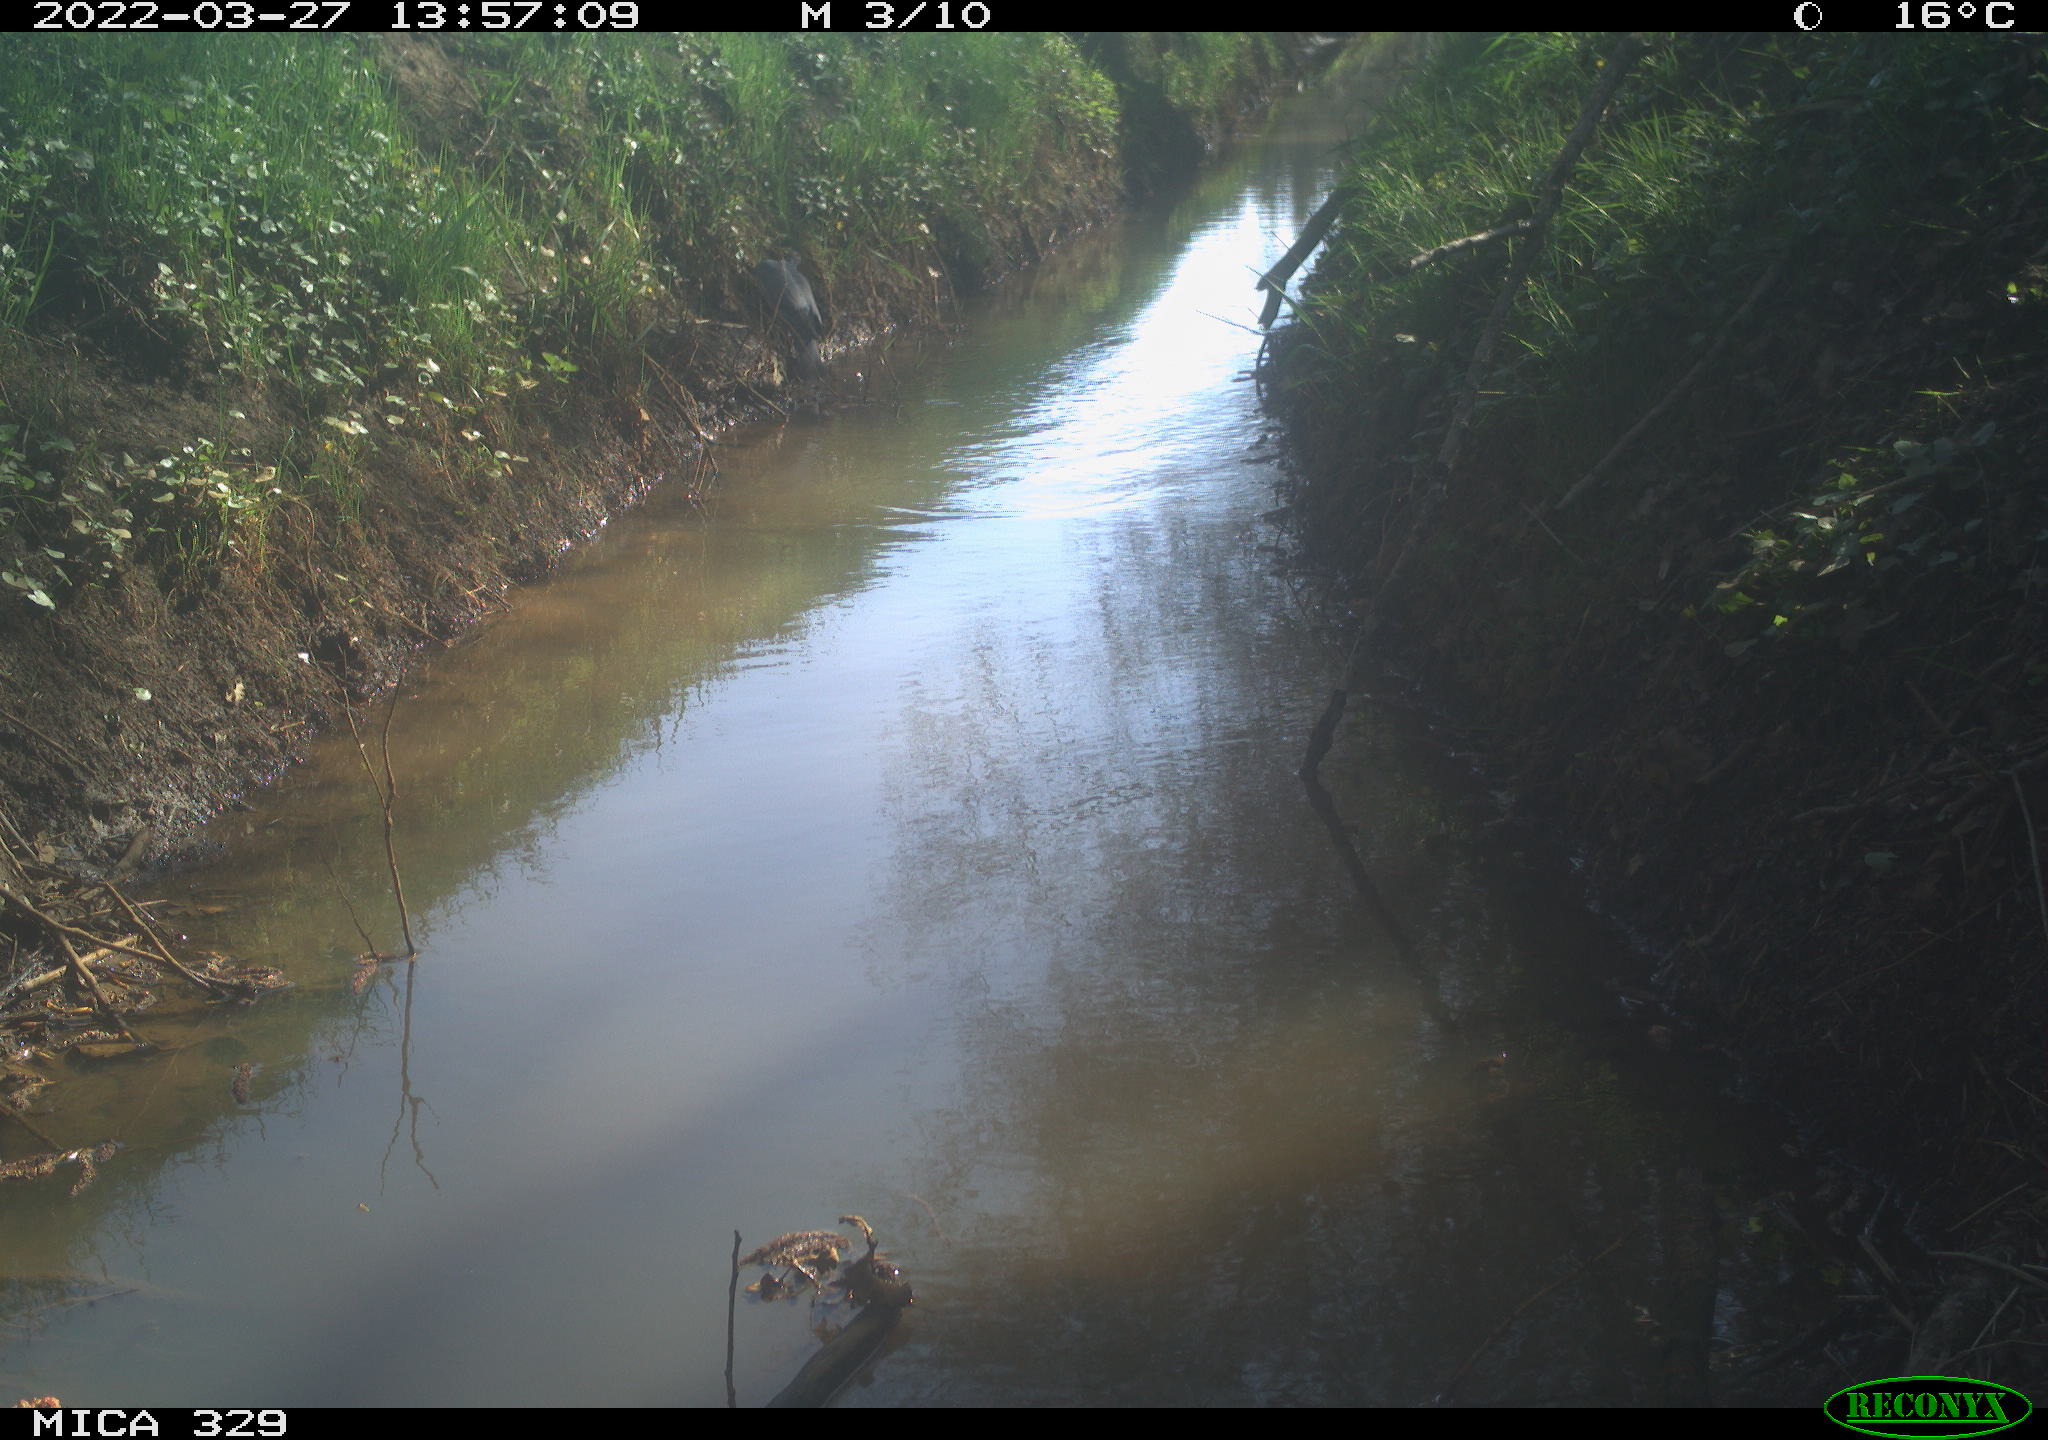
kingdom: Animalia
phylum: Chordata
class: Aves
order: Columbiformes
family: Columbidae
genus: Columba
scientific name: Columba palumbus
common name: Common wood pigeon
